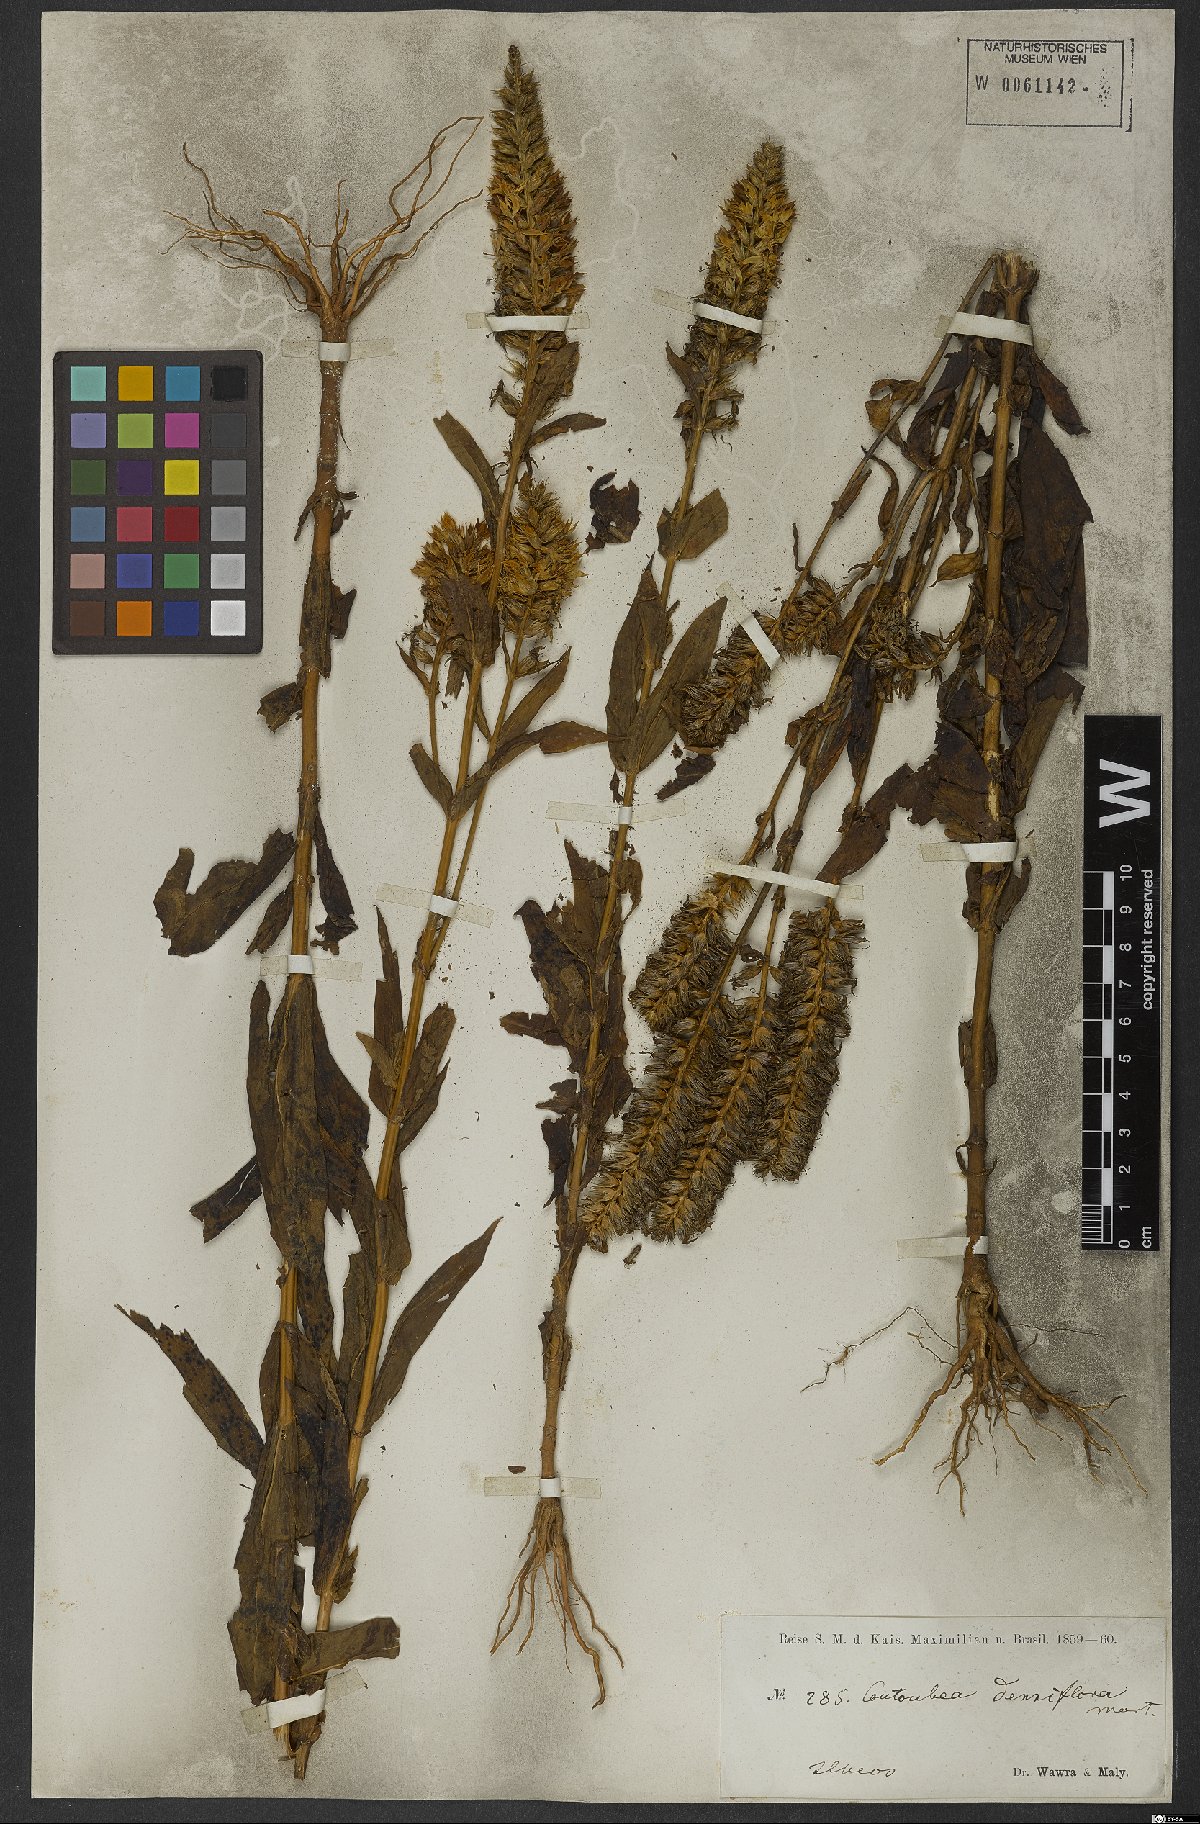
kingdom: Plantae
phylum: Tracheophyta
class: Magnoliopsida
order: Gentianales
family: Gentianaceae
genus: Coutoubea
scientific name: Coutoubea spicata
